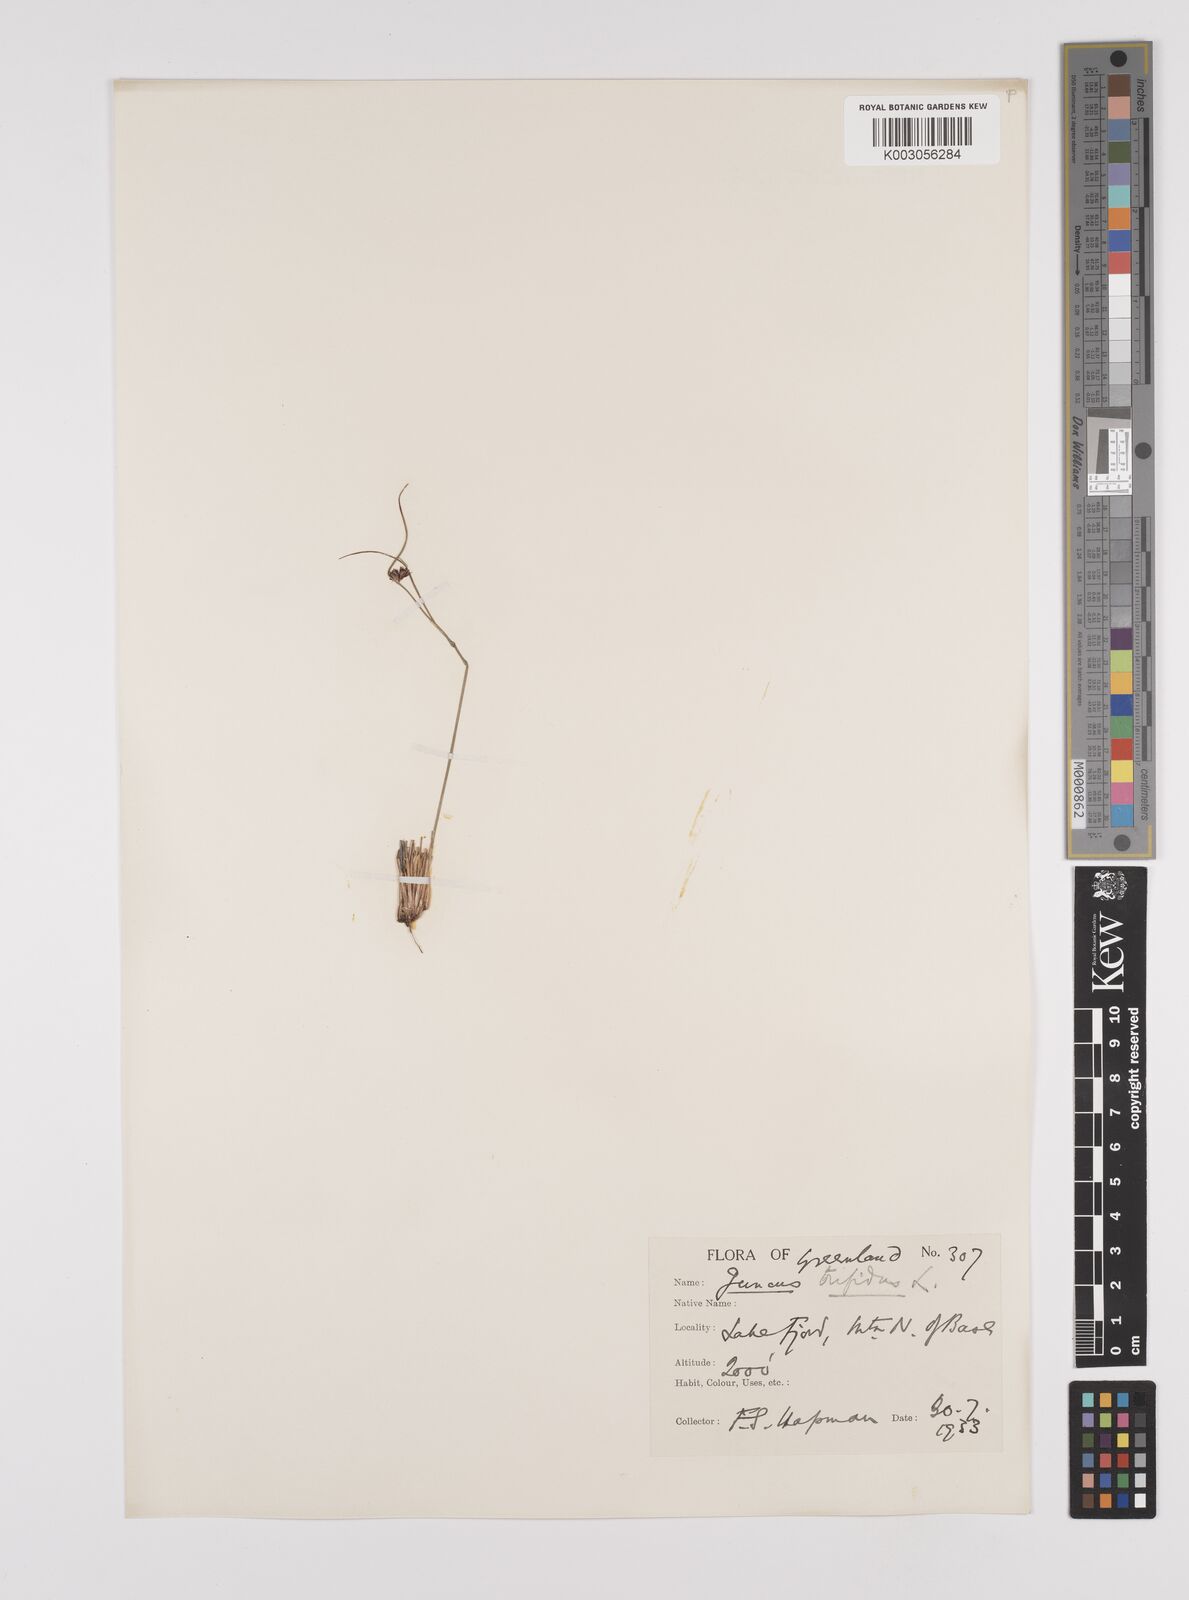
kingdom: Plantae
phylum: Tracheophyta
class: Liliopsida
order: Poales
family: Juncaceae
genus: Oreojuncus
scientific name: Oreojuncus trifidus
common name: Highland rush
